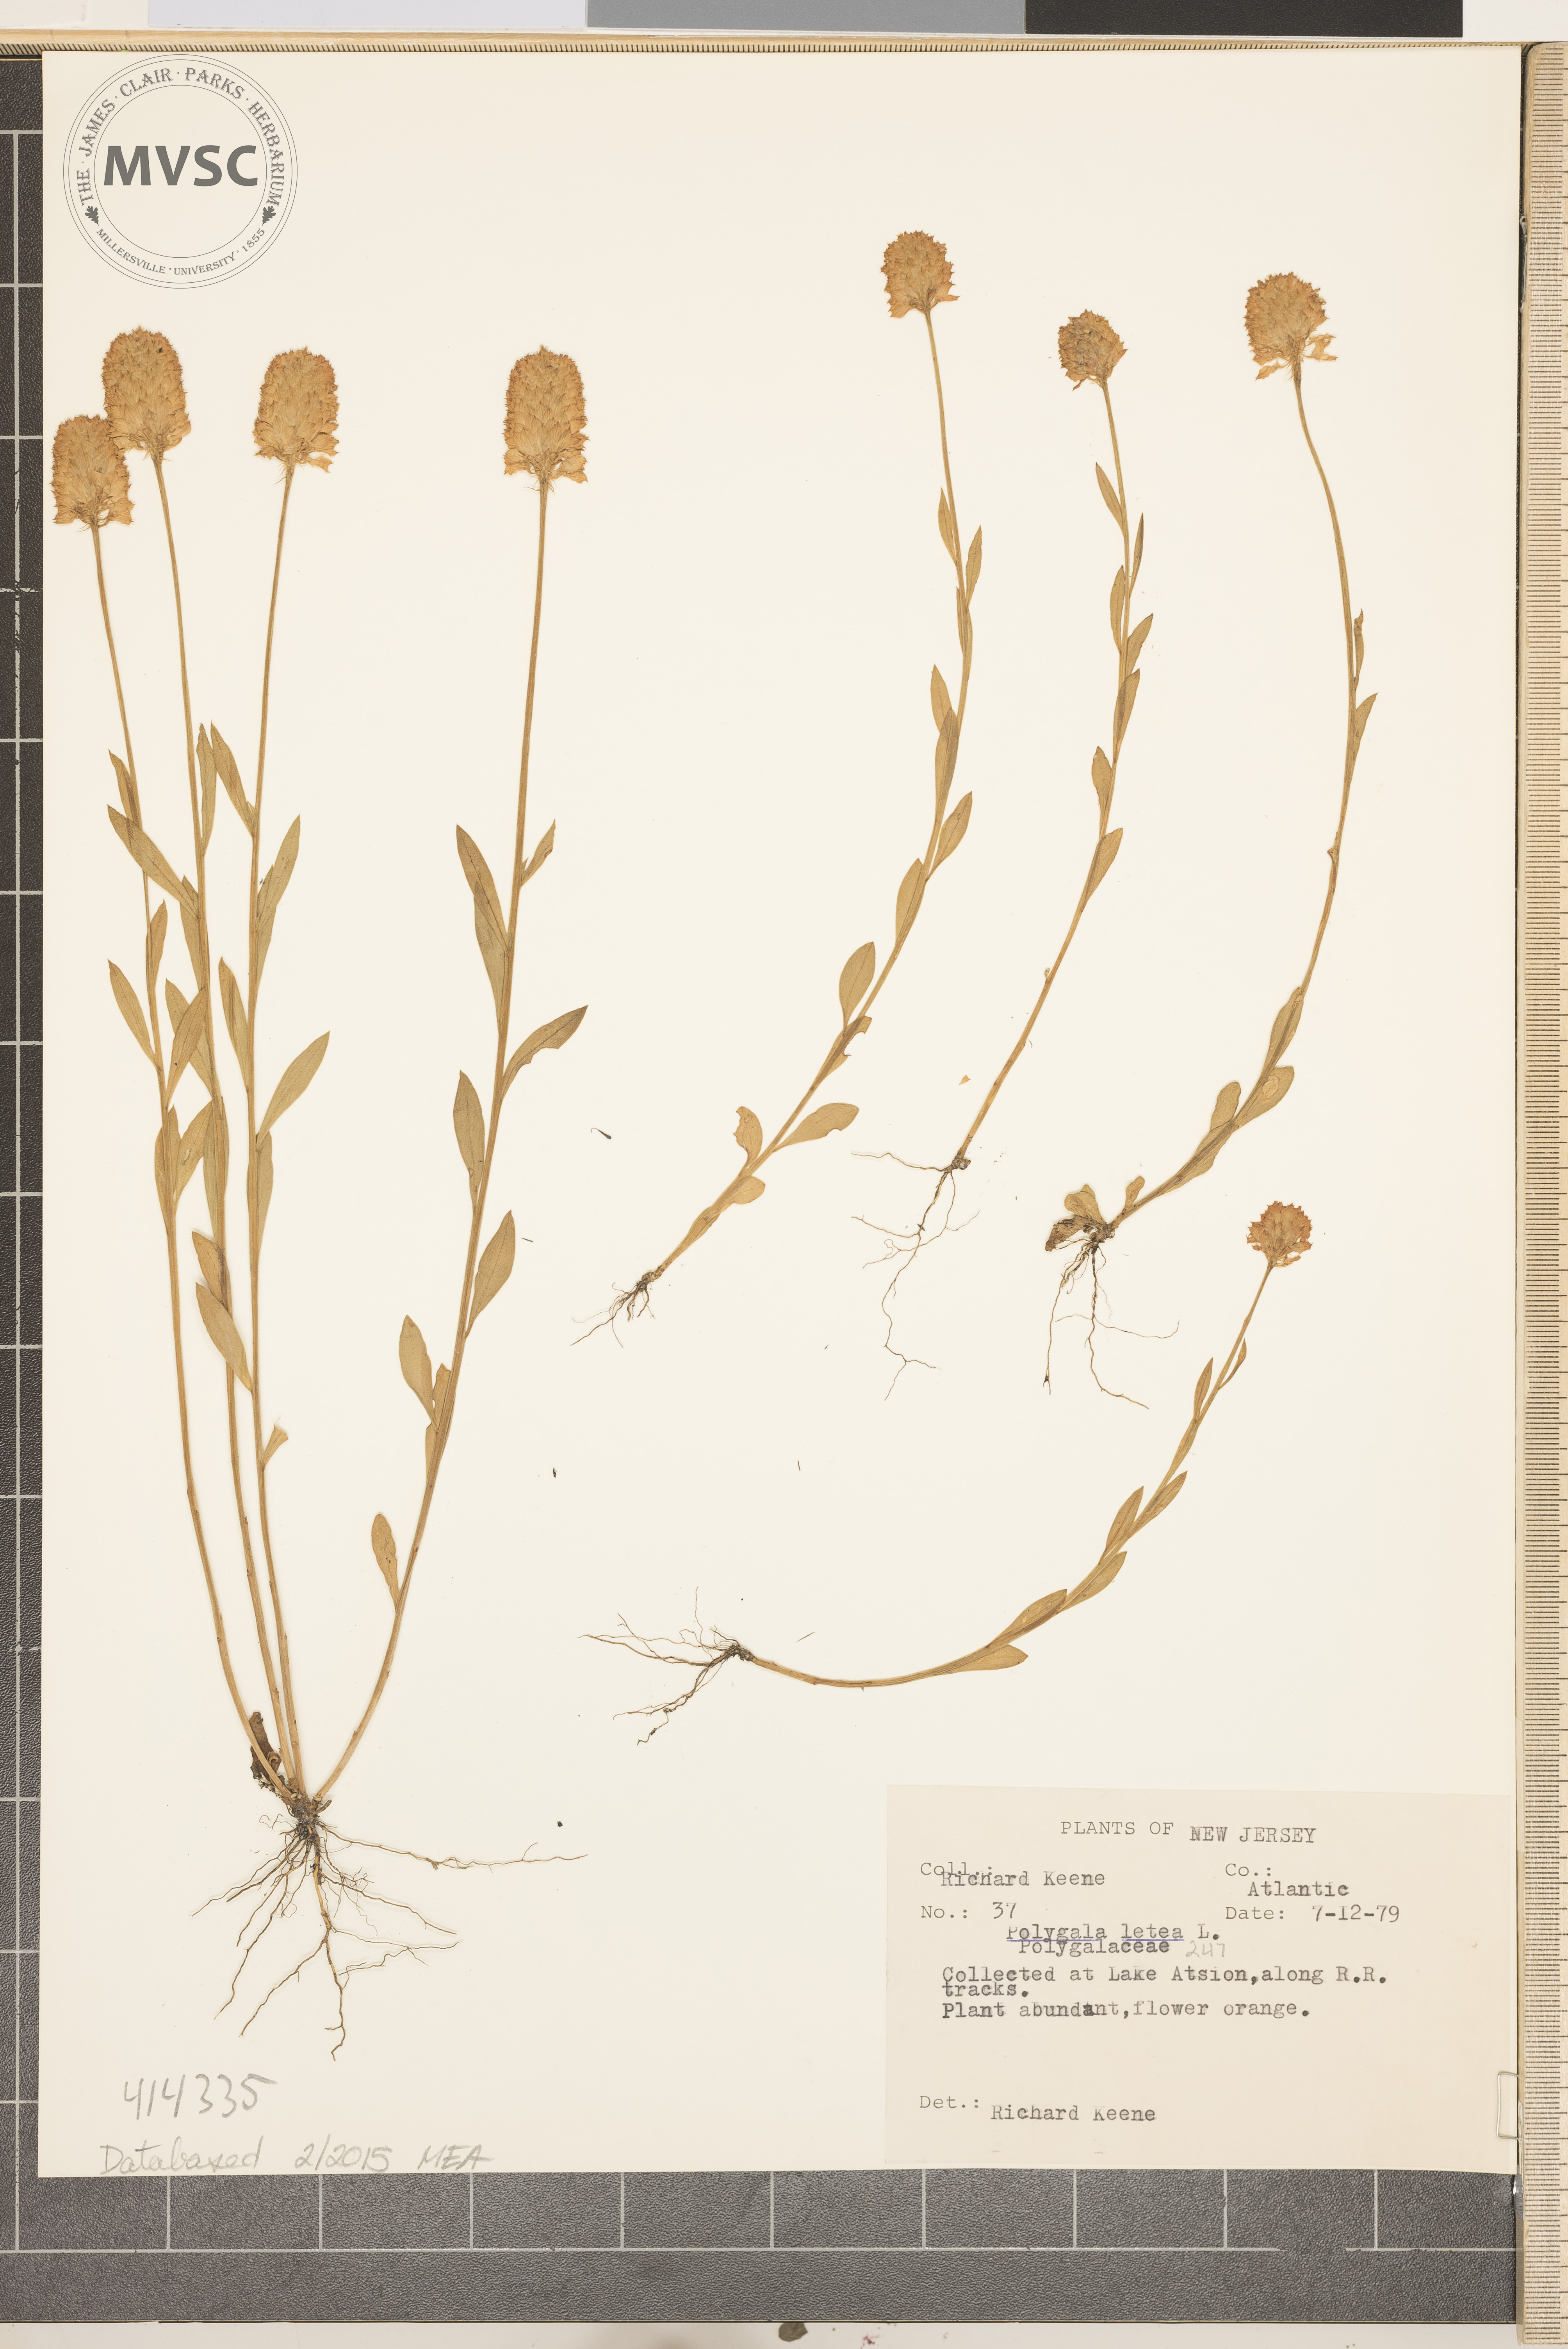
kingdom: Plantae
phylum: Tracheophyta
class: Magnoliopsida
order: Fabales
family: Polygalaceae
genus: Polygala
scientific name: Polygala lutea
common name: Orange Milkwort
